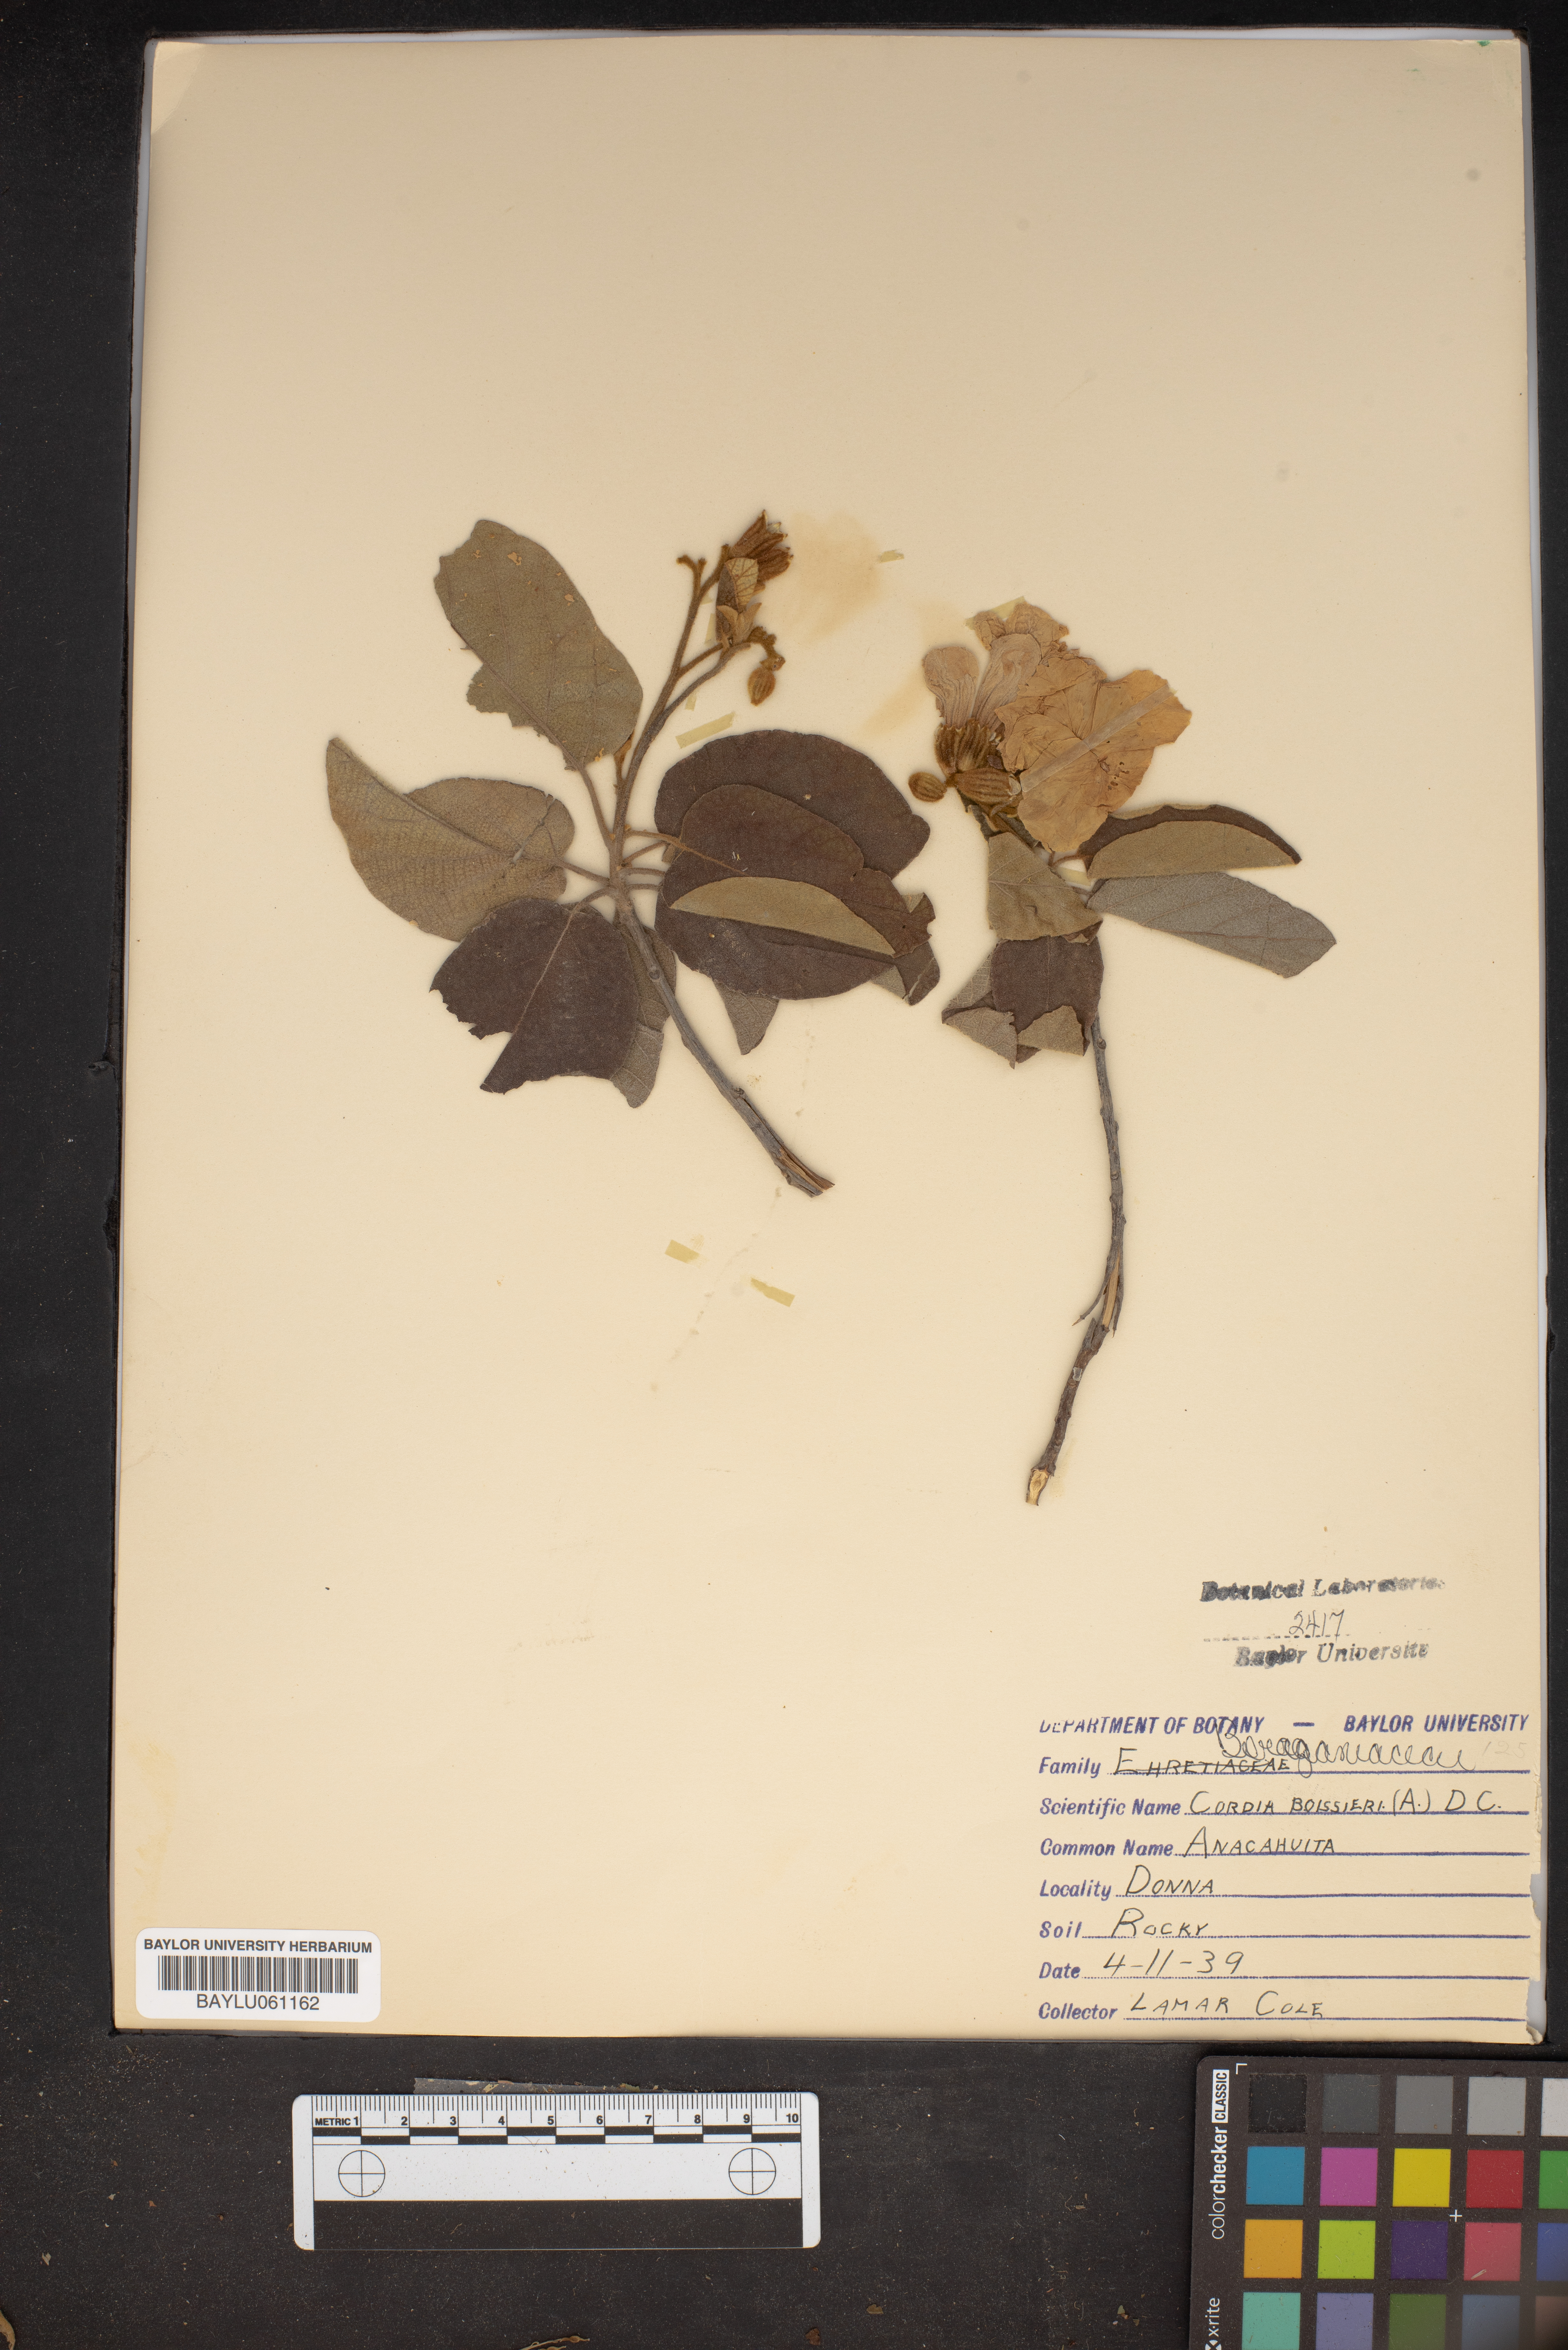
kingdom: Plantae
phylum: Tracheophyta
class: Magnoliopsida
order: Boraginales
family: Cordiaceae
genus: Cordia
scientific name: Cordia boissieri
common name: Mexican-olive
